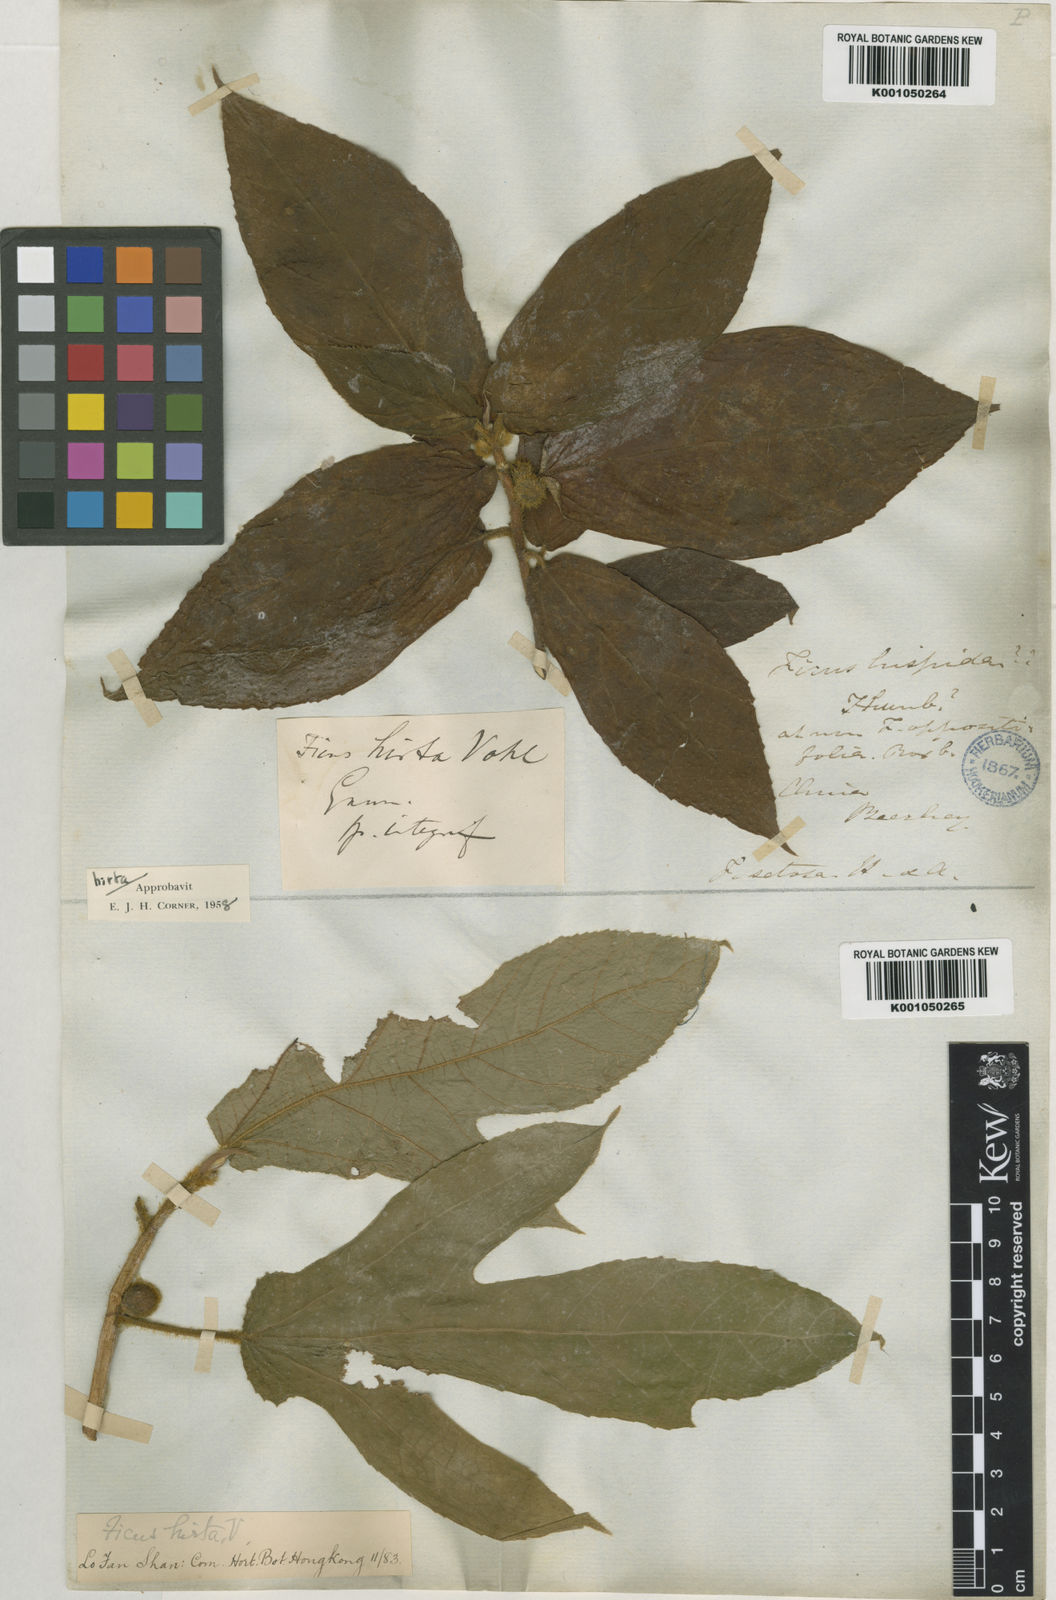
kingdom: Plantae
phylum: Tracheophyta
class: Magnoliopsida
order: Rosales
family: Moraceae
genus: Ficus
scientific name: Ficus simplicissima
